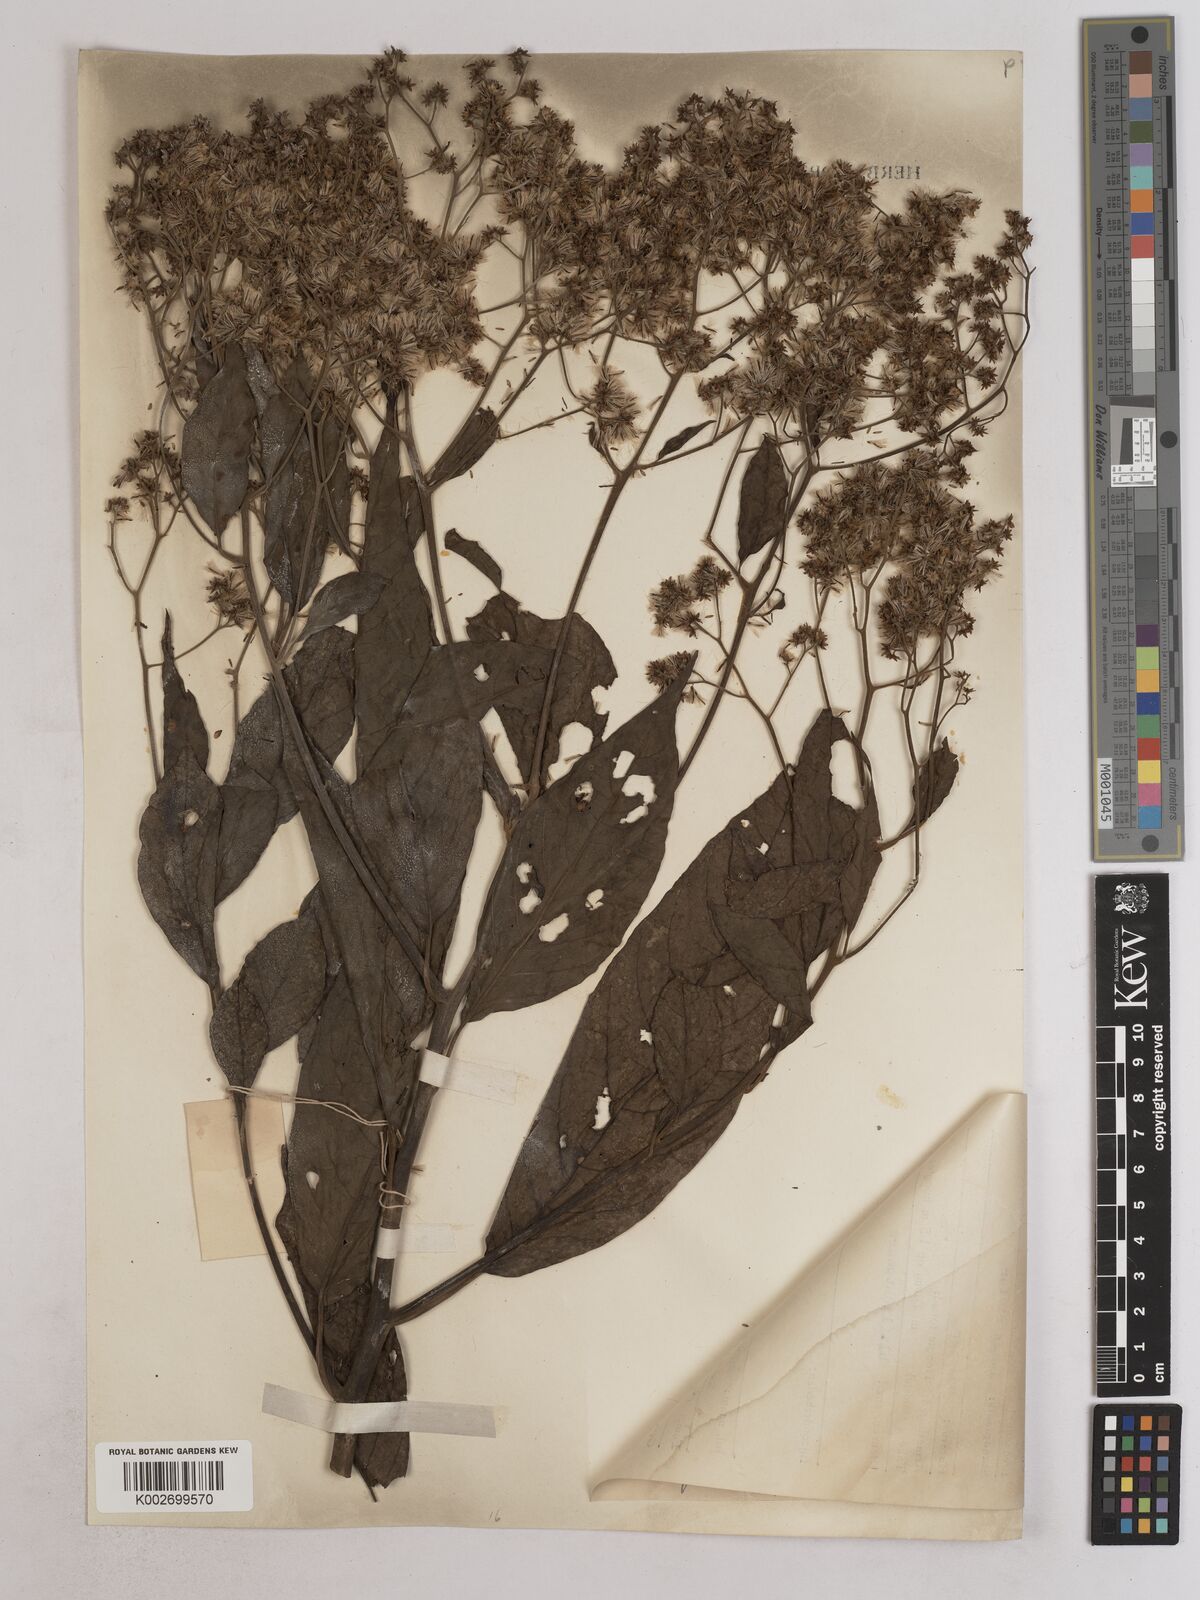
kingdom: Plantae
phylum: Tracheophyta
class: Magnoliopsida
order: Asterales
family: Asteraceae
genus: Strobocalyx
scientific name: Strobocalyx arborea
